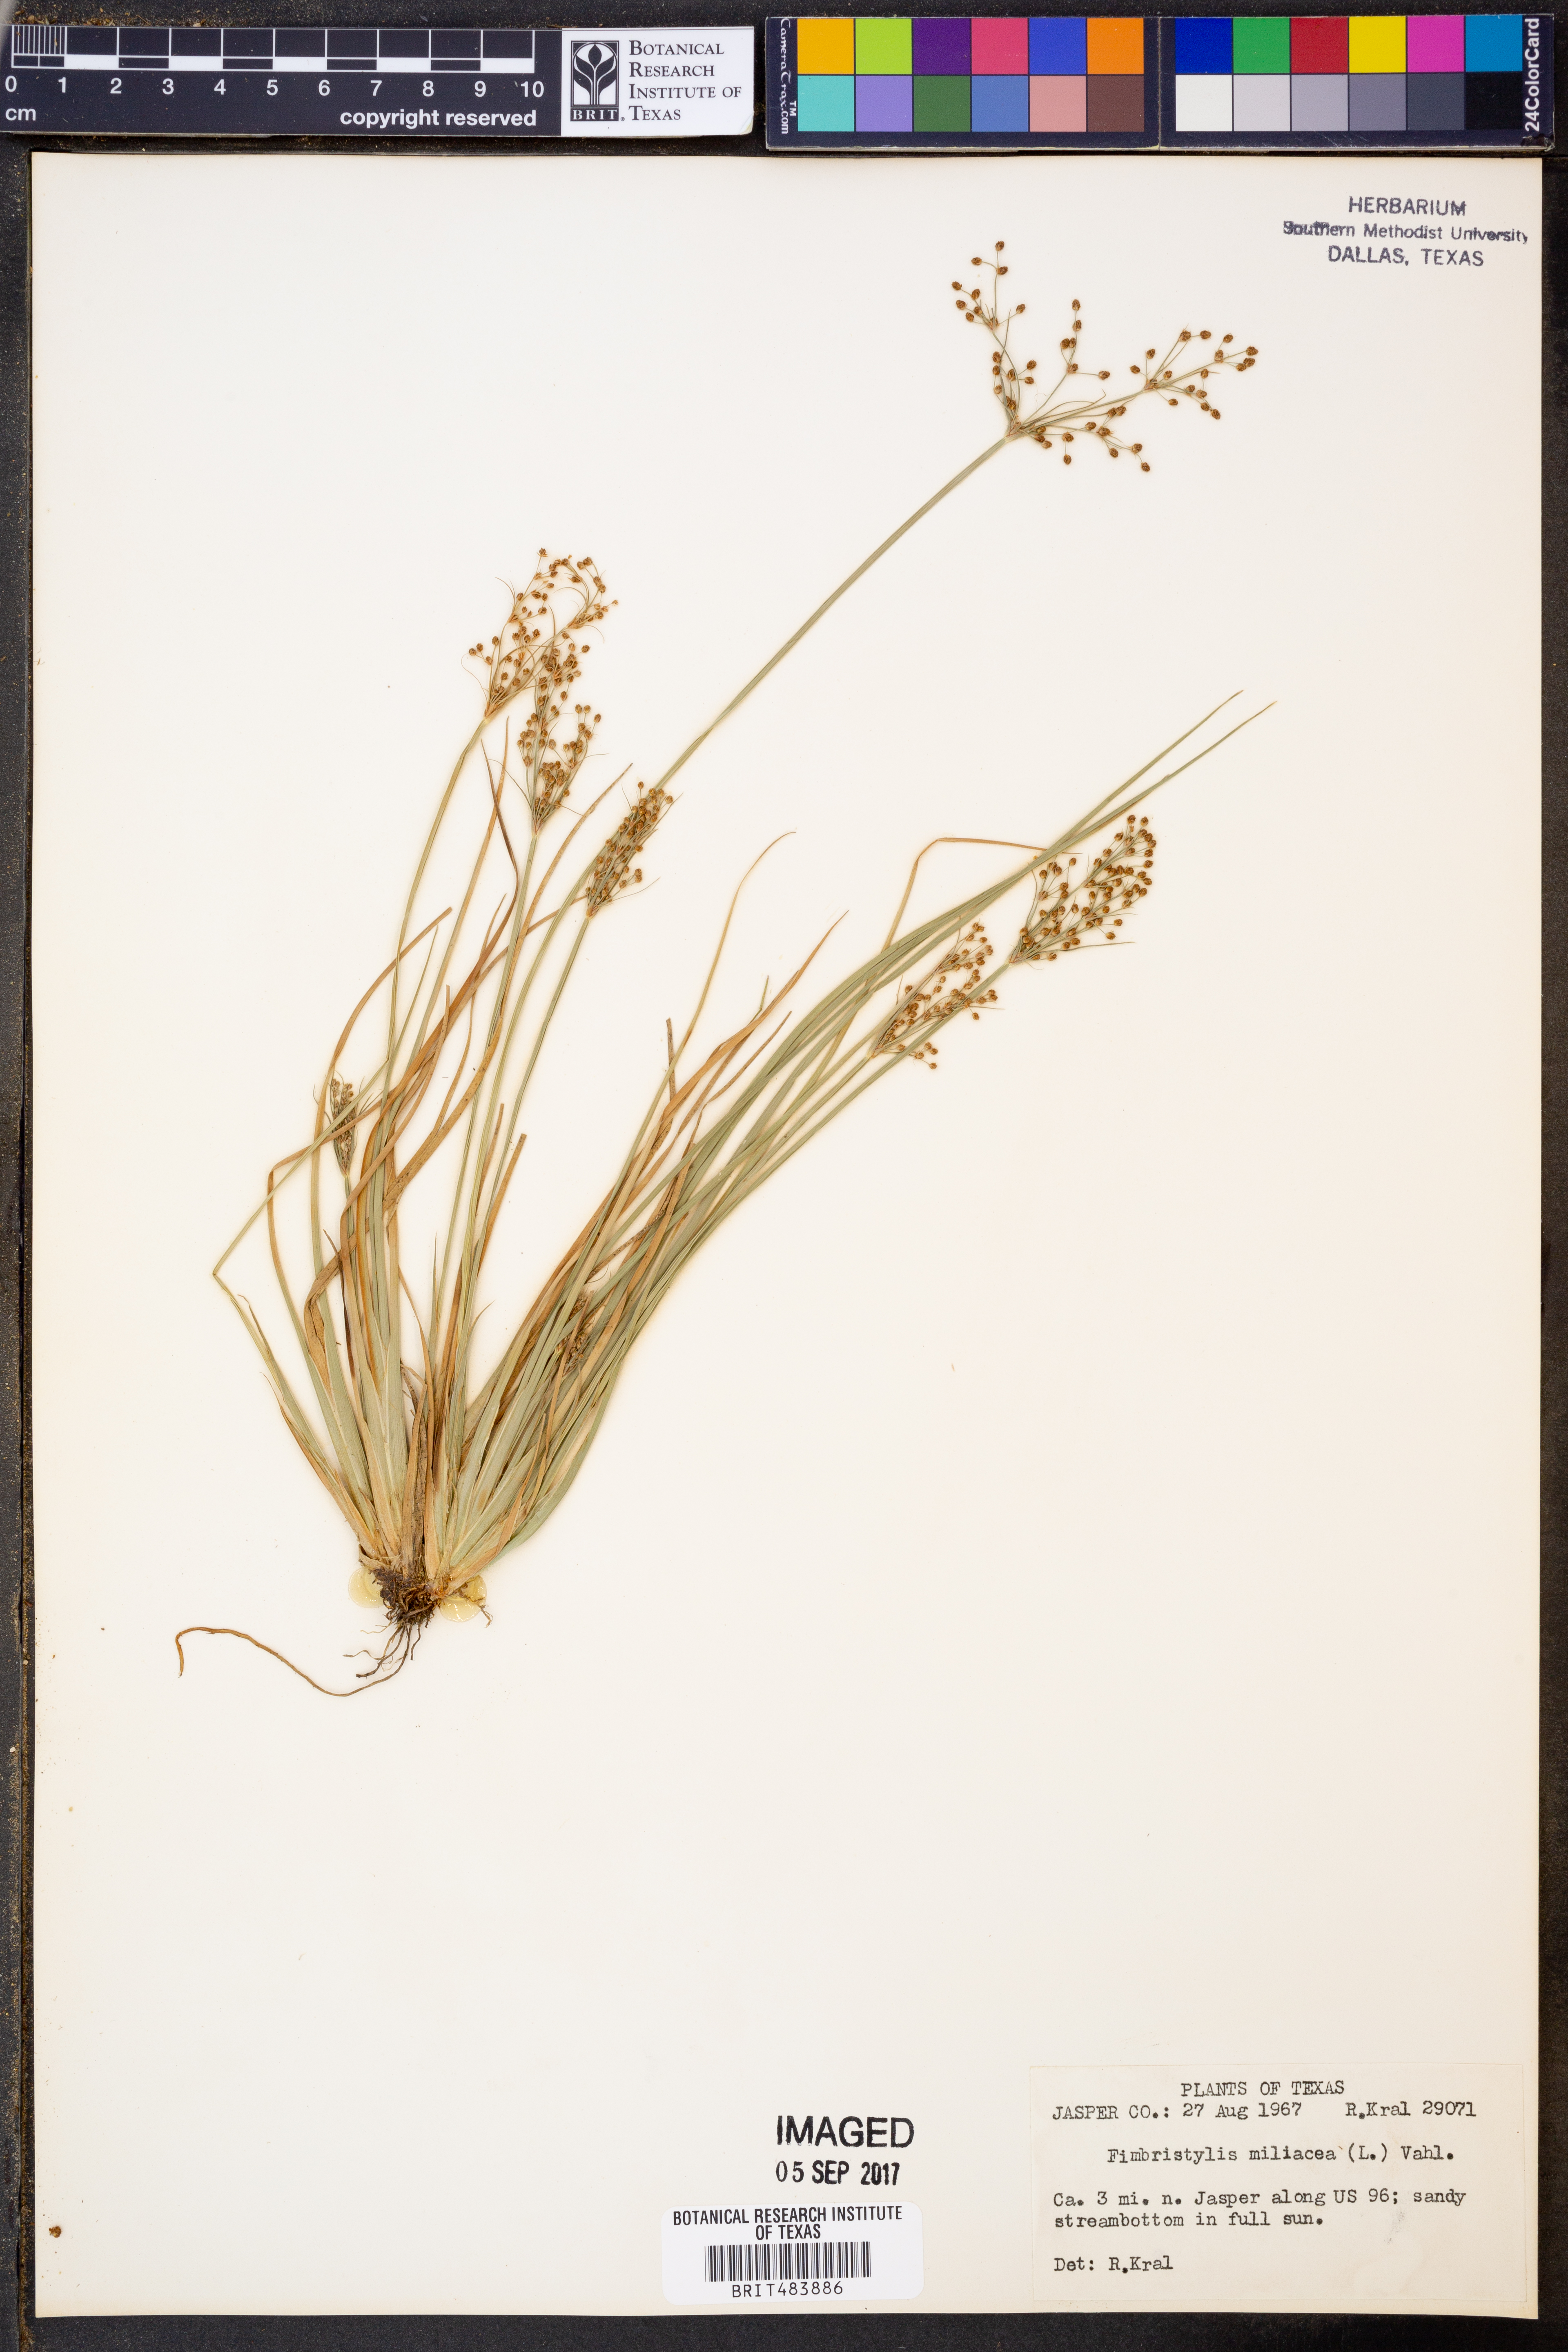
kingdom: Plantae
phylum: Tracheophyta
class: Liliopsida
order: Poales
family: Cyperaceae
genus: Fimbristylis
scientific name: Fimbristylis quinquangularis
